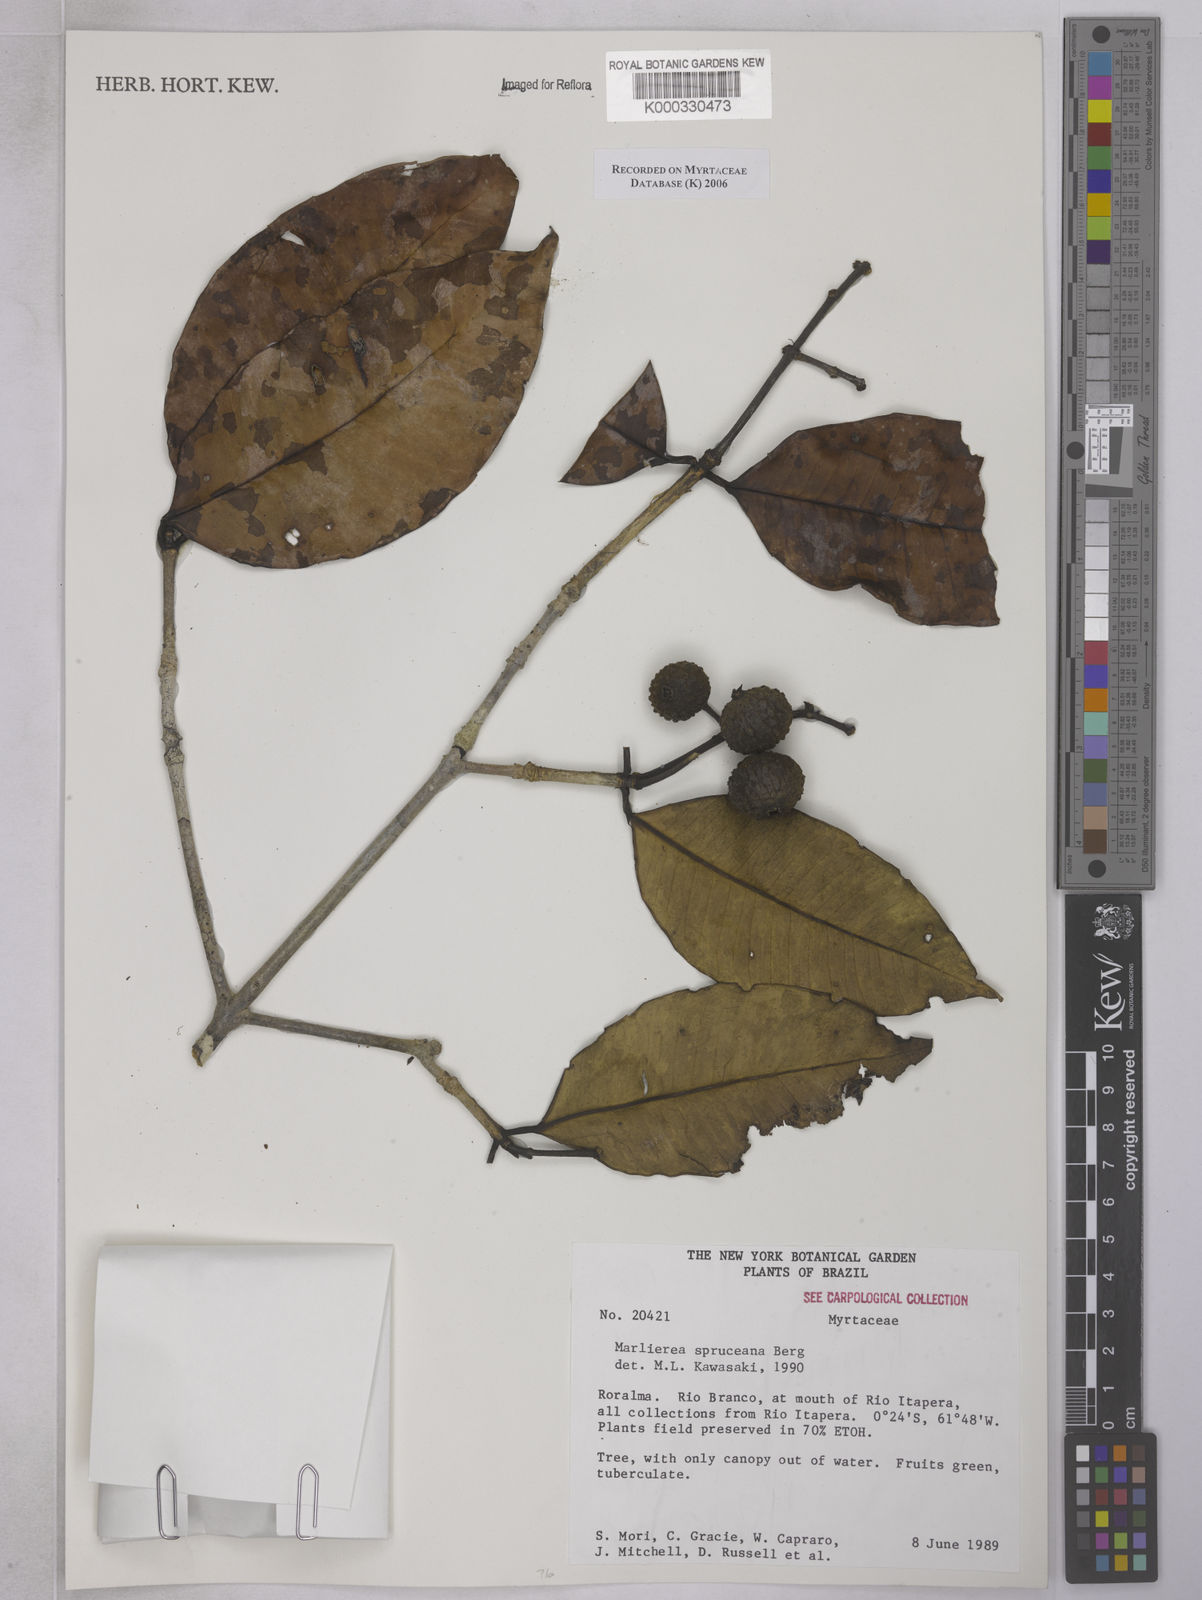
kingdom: Plantae
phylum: Tracheophyta
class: Magnoliopsida
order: Myrtales
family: Myrtaceae
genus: Myrcia
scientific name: Myrcia argentigemma
